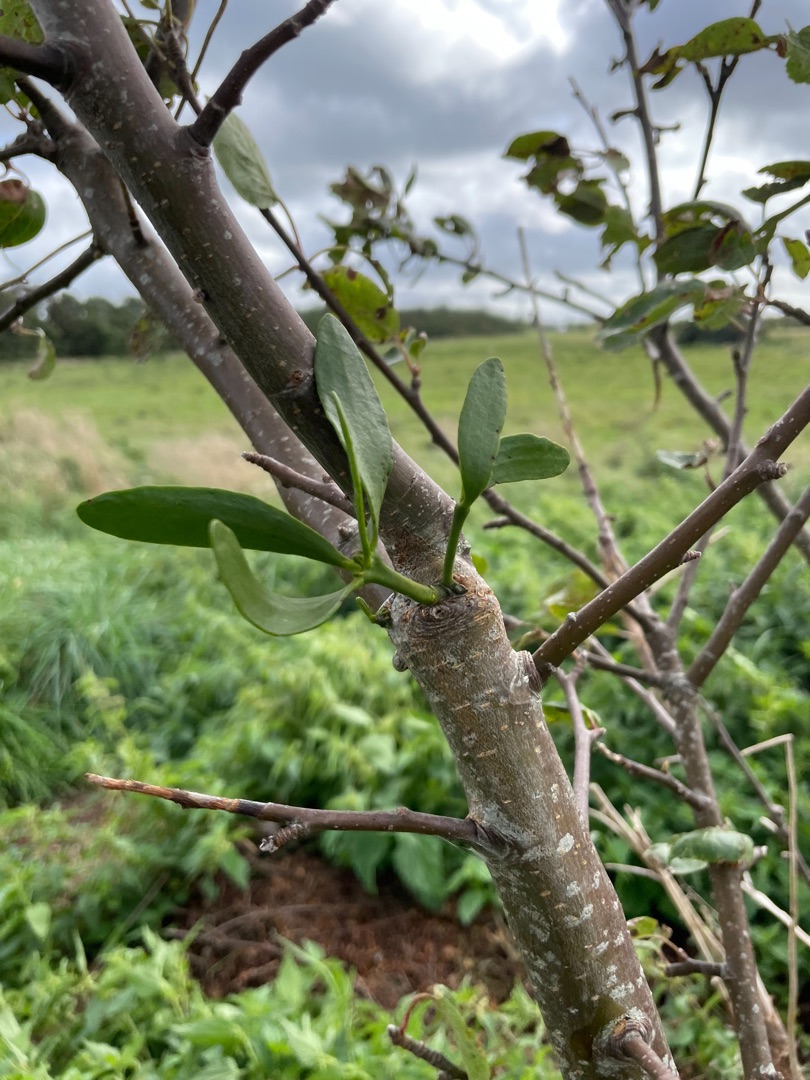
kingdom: Plantae
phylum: Tracheophyta
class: Magnoliopsida
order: Santalales
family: Viscaceae
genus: Viscum
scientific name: Viscum album
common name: Mistelten
